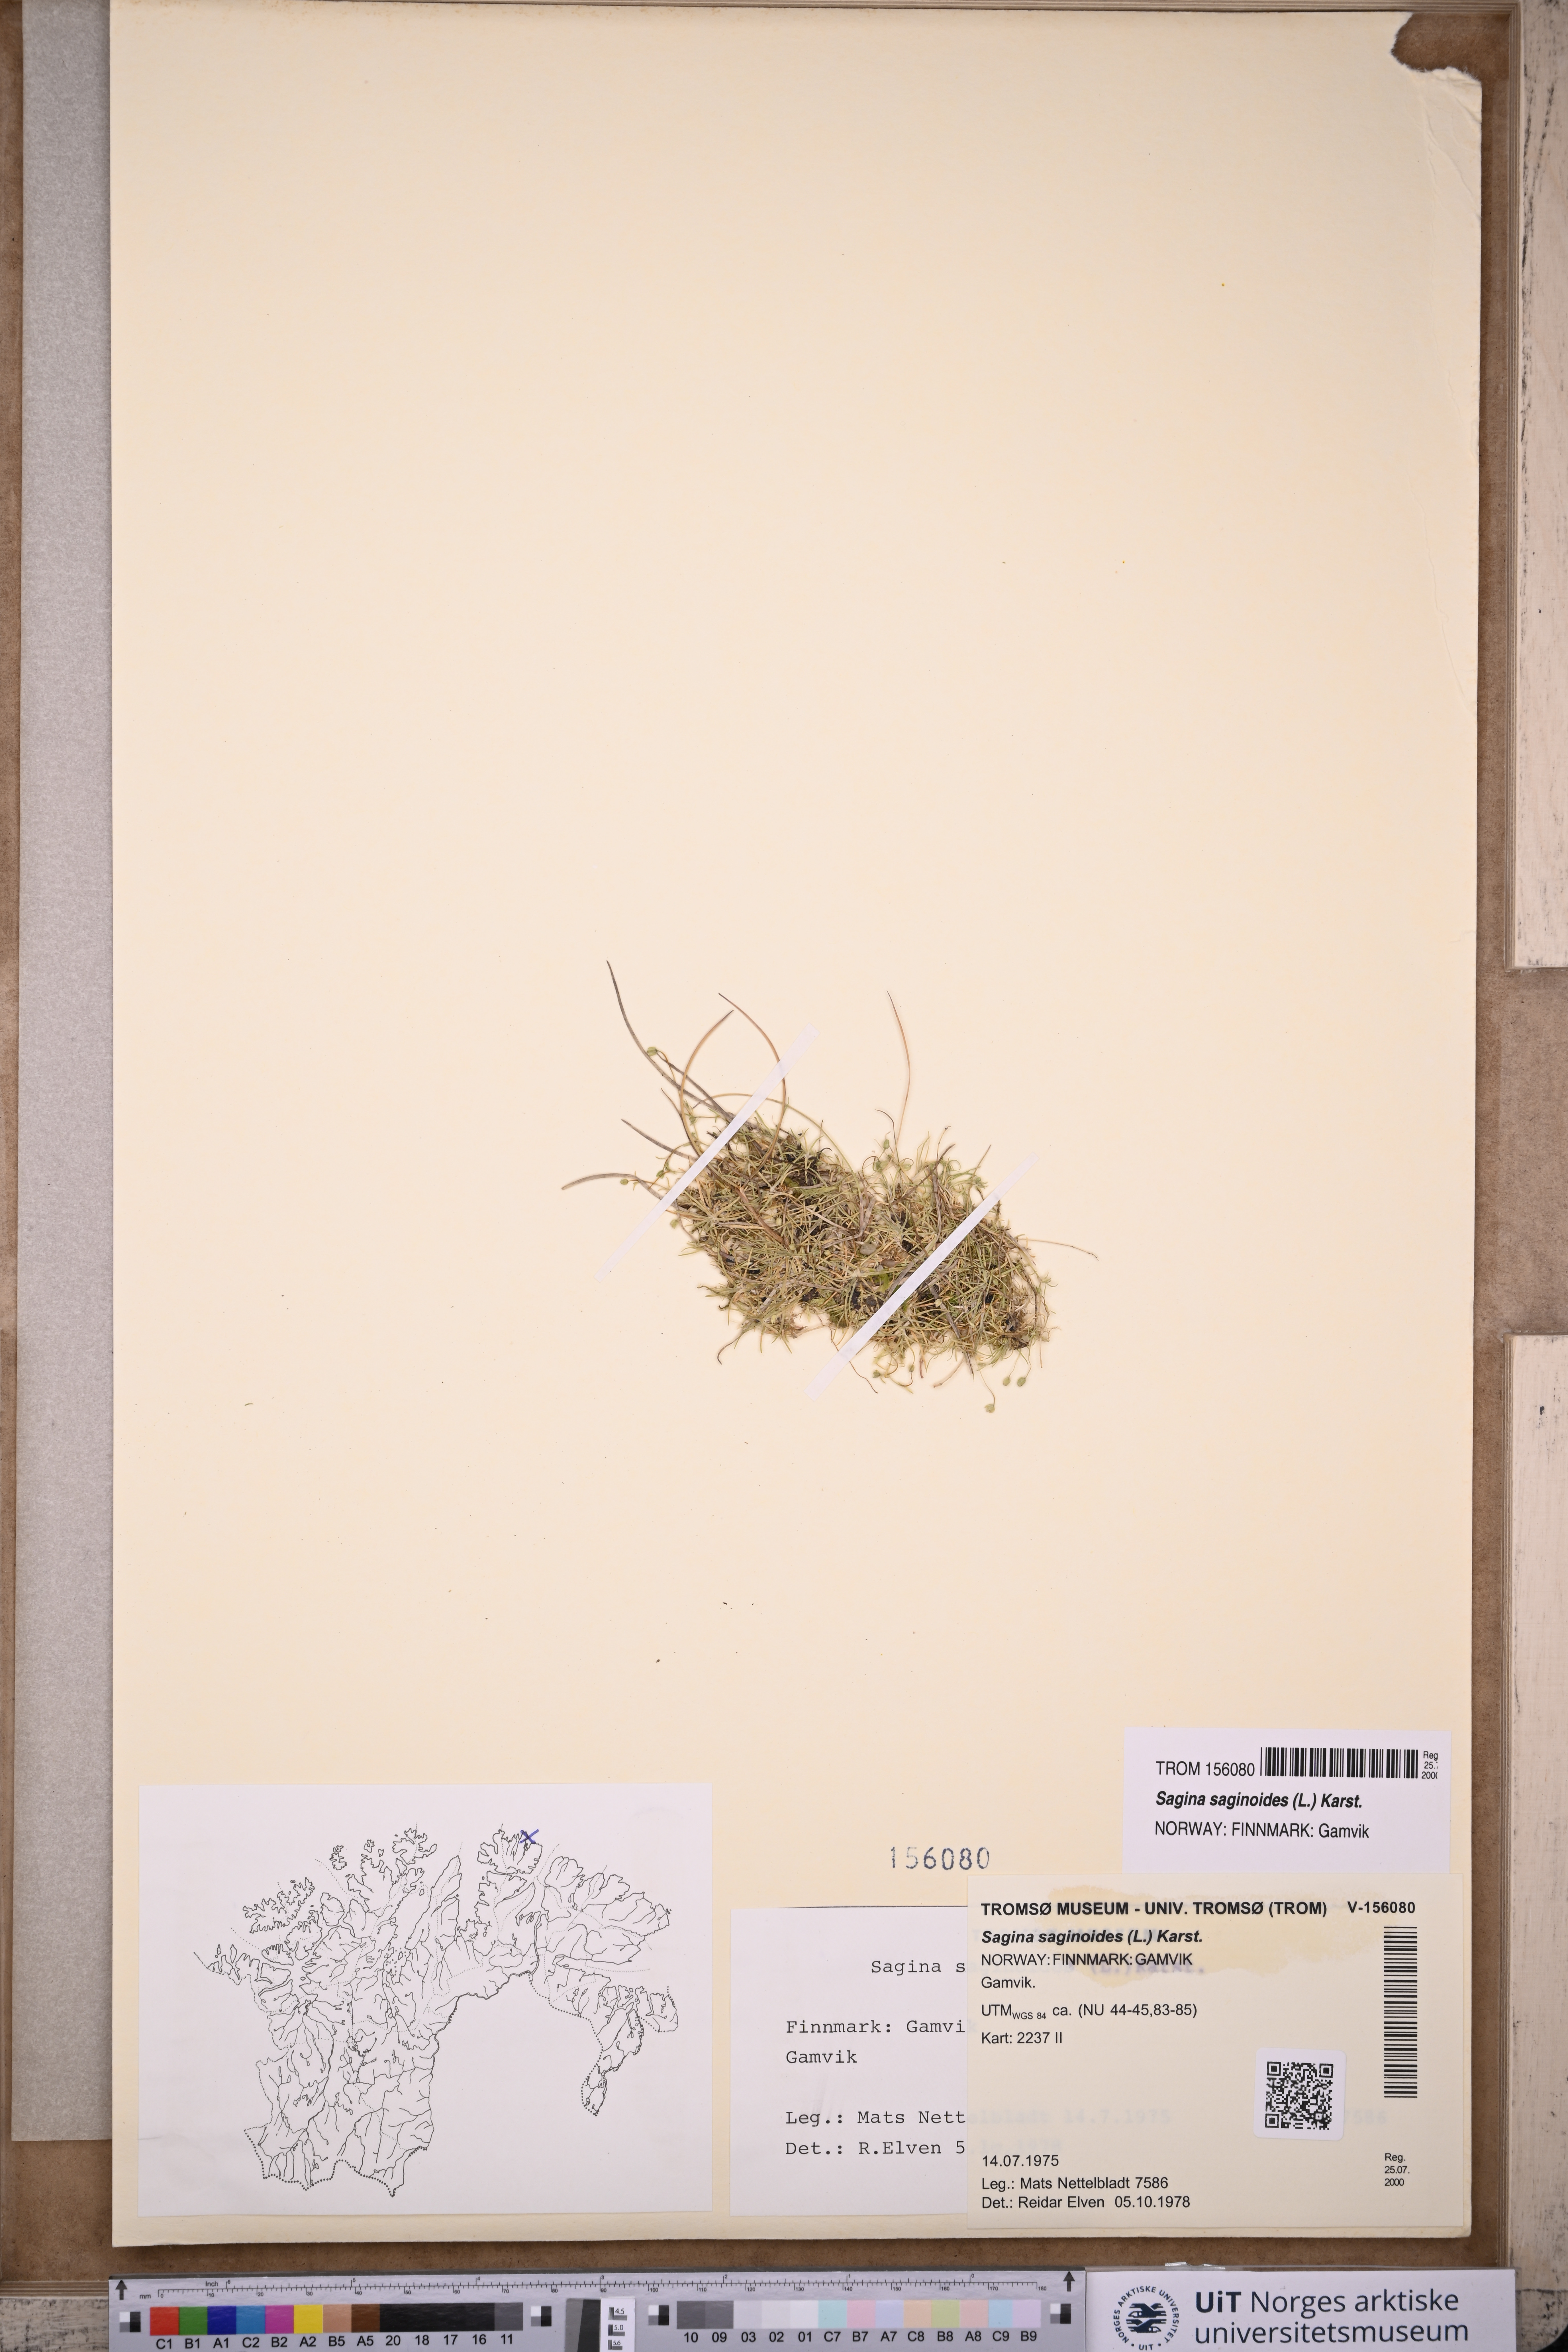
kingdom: Plantae
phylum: Tracheophyta
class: Magnoliopsida
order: Caryophyllales
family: Caryophyllaceae
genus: Sagina
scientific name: Sagina saginoides
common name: Alpine pearlwort
